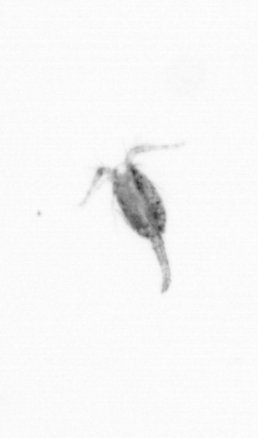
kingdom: Animalia
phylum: Arthropoda
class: Copepoda
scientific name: Copepoda
